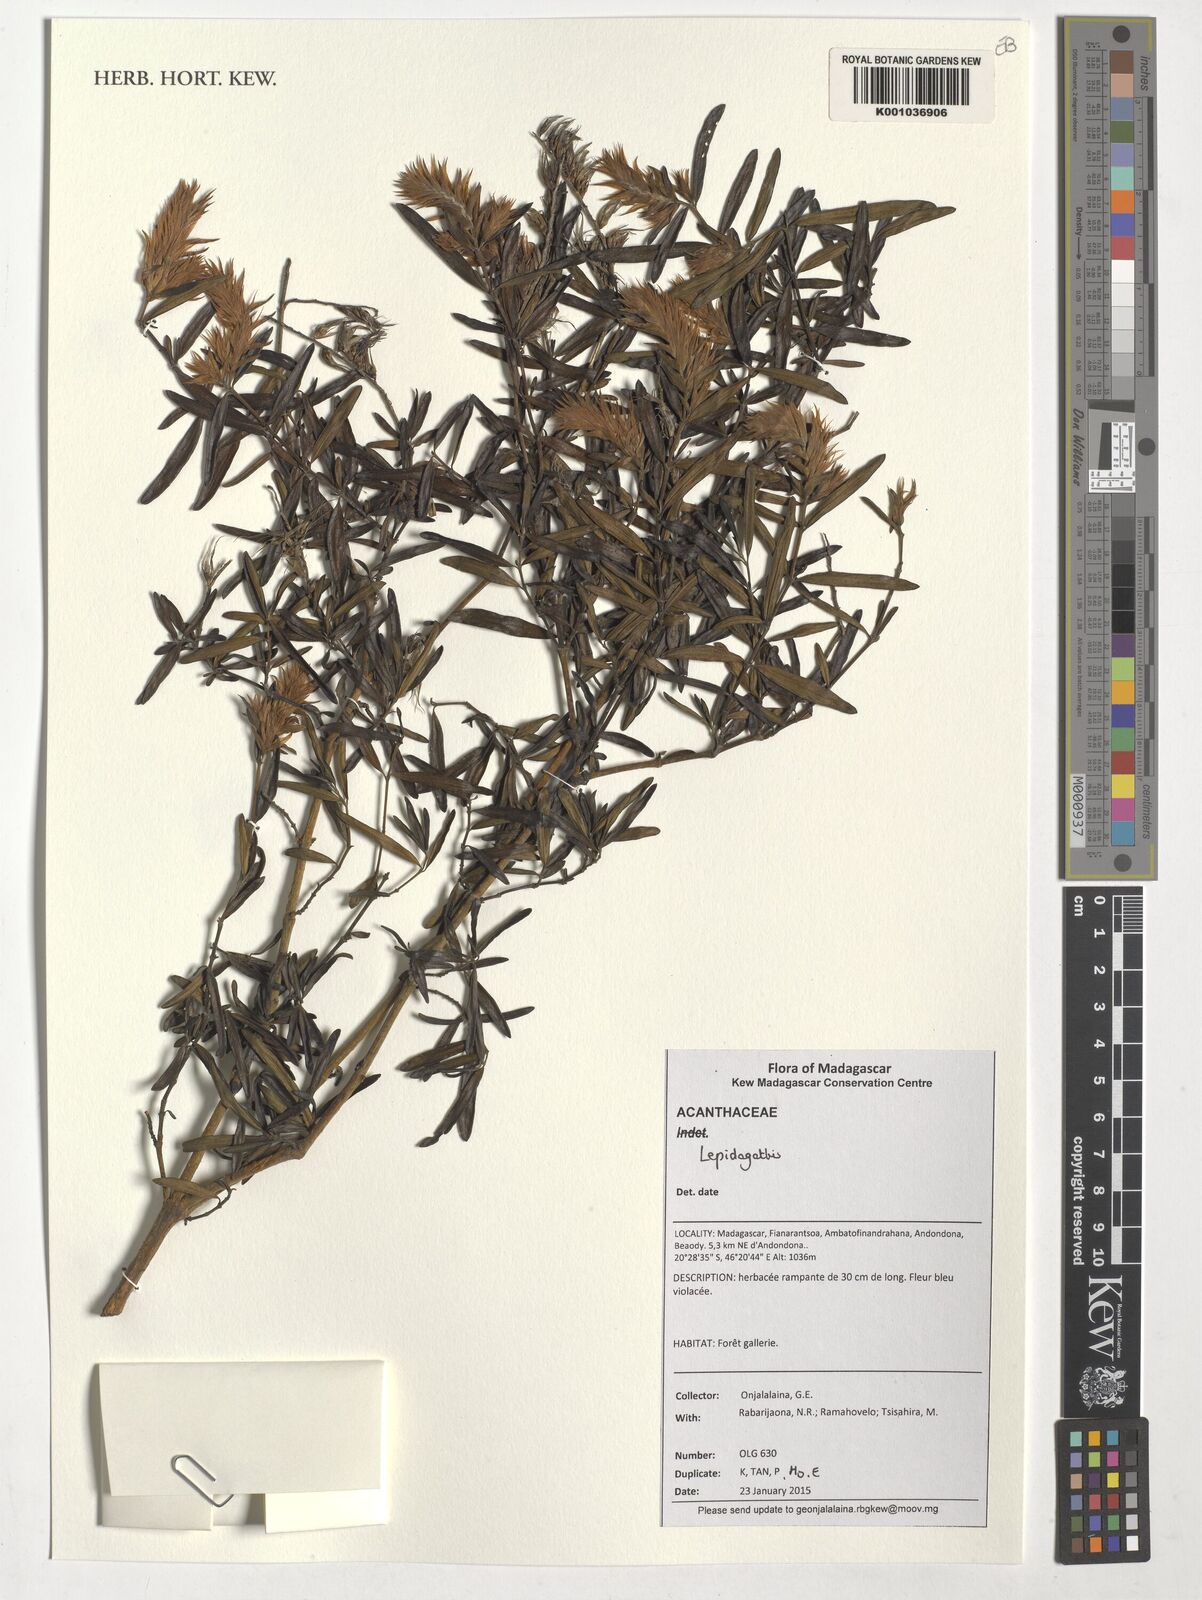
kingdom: Plantae
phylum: Tracheophyta
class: Magnoliopsida
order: Lamiales
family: Acanthaceae
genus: Lepidagathis
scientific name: Lepidagathis
